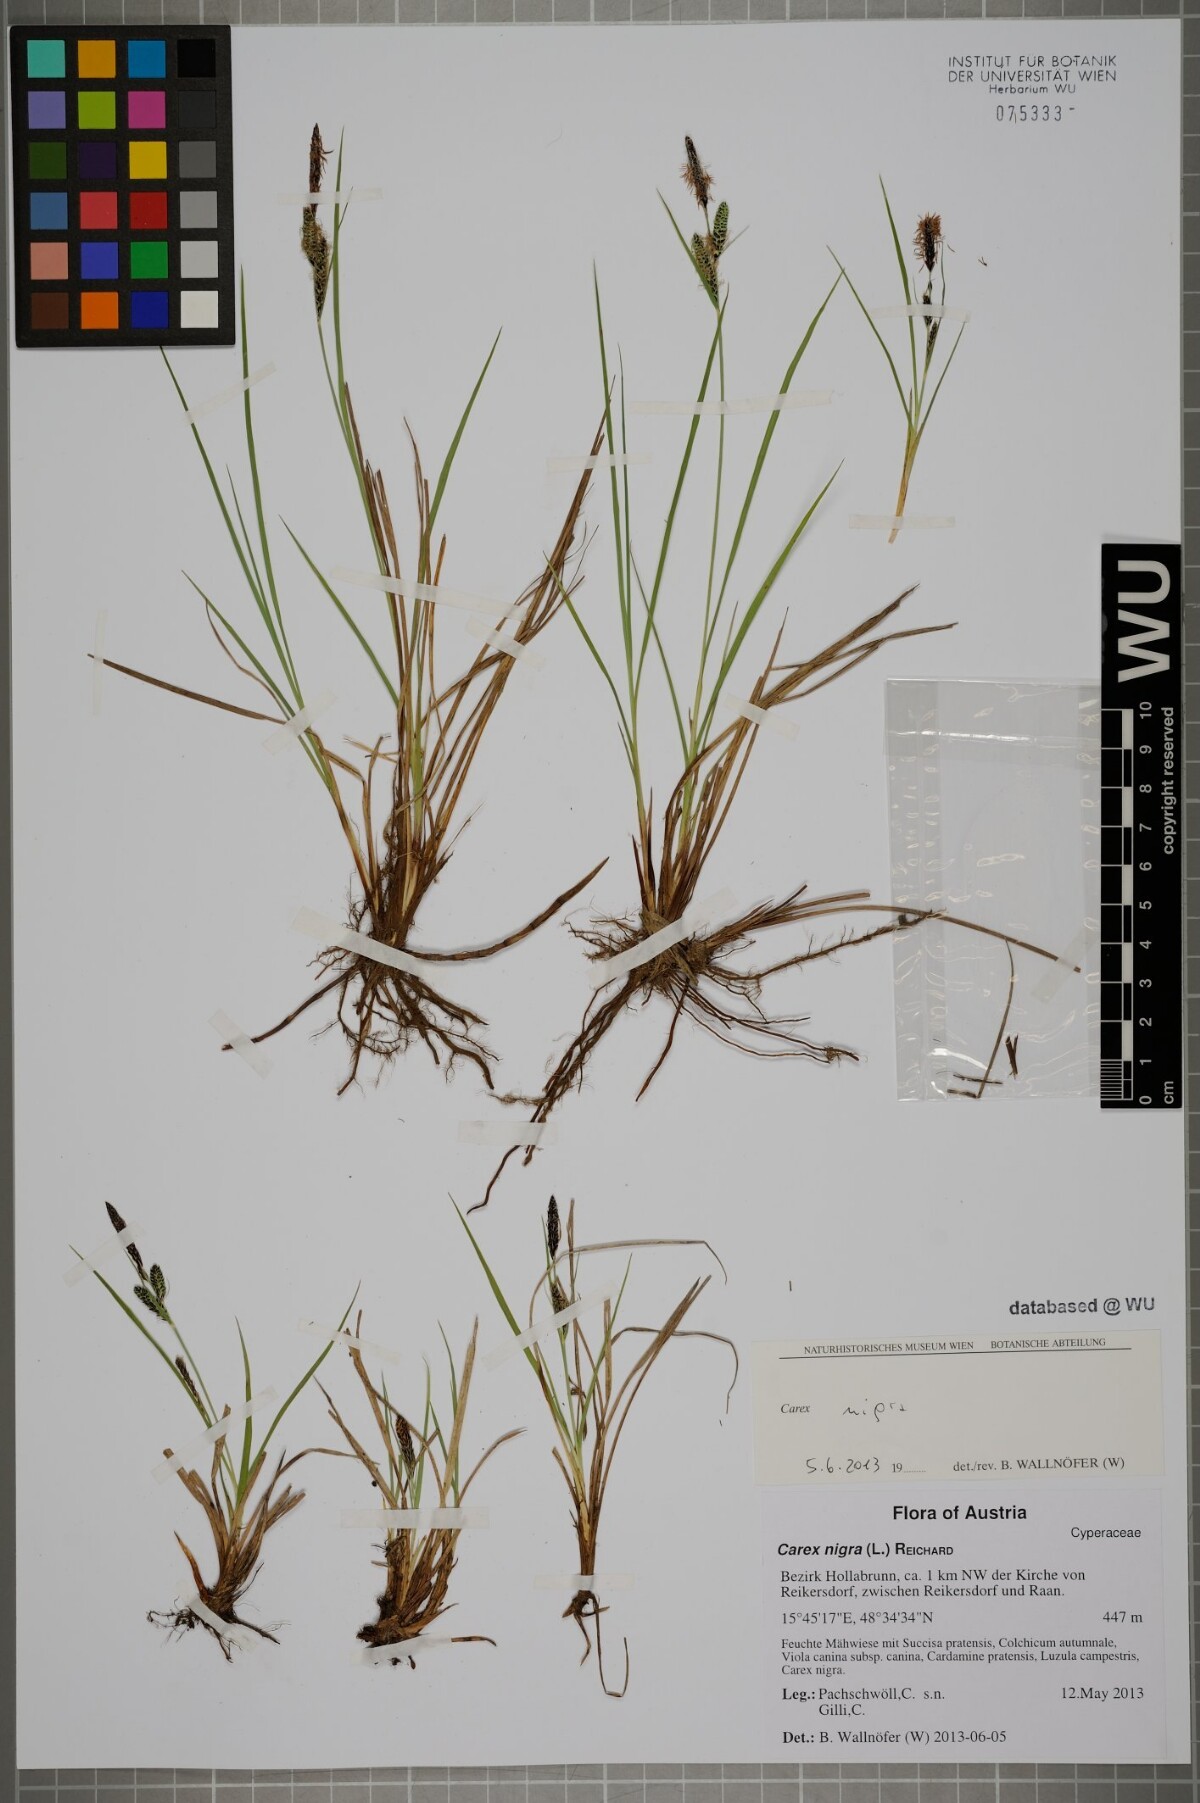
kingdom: Plantae
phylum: Tracheophyta
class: Liliopsida
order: Poales
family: Cyperaceae
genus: Carex
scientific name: Carex nigra
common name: Common sedge
